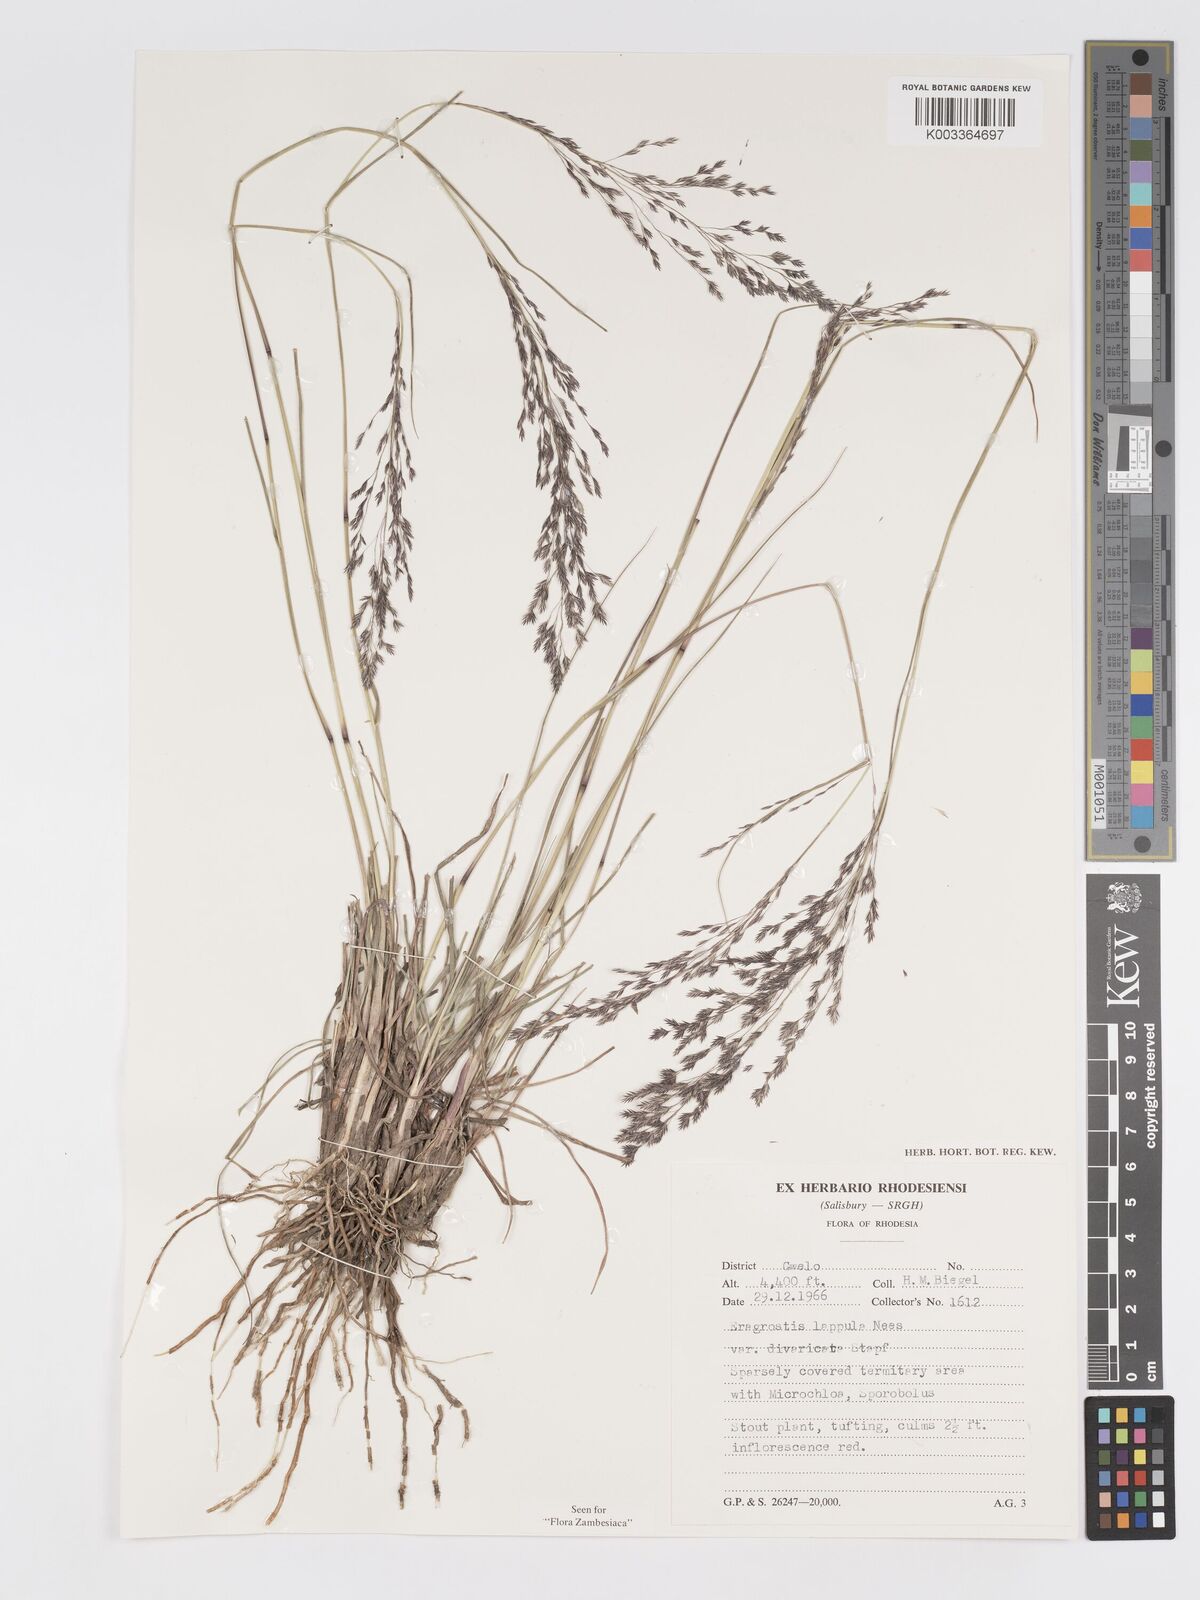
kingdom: Plantae
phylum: Tracheophyta
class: Liliopsida
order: Poales
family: Poaceae
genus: Eragrostis
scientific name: Eragrostis lappula
